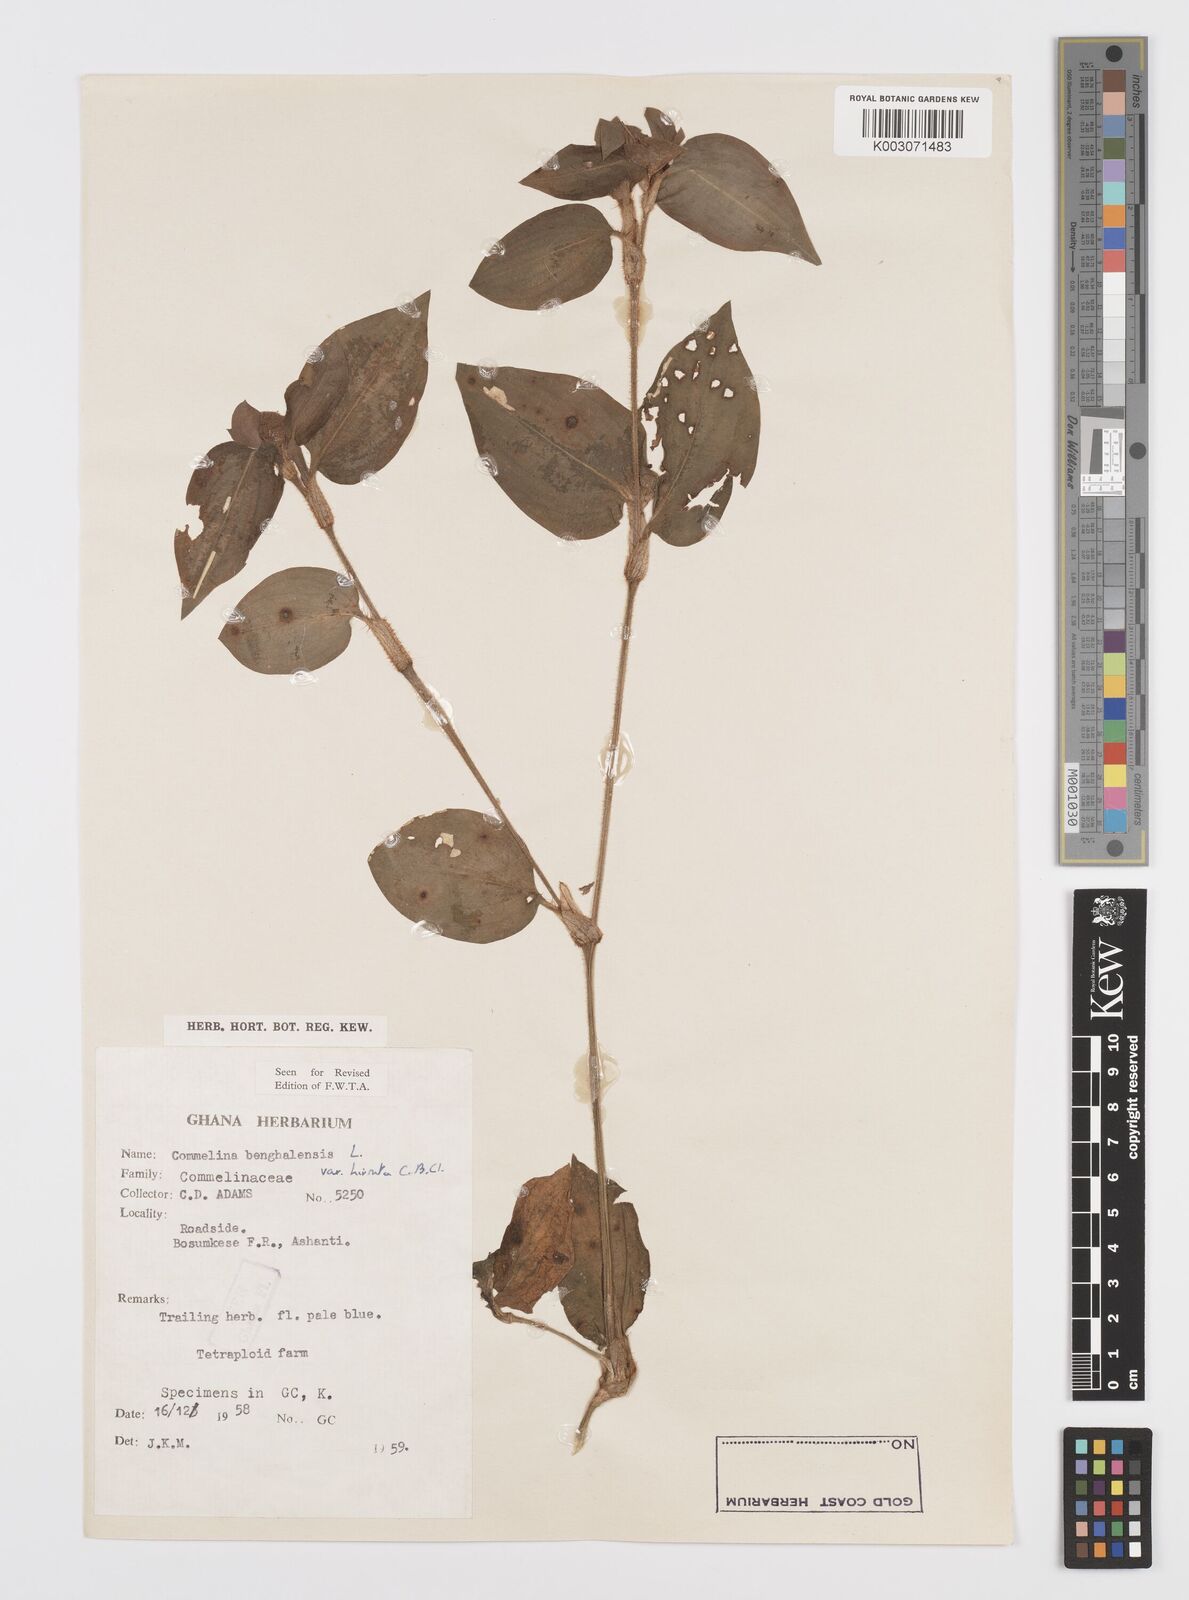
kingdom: Plantae
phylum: Tracheophyta
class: Liliopsida
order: Commelinales
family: Commelinaceae
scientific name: Commelinaceae
